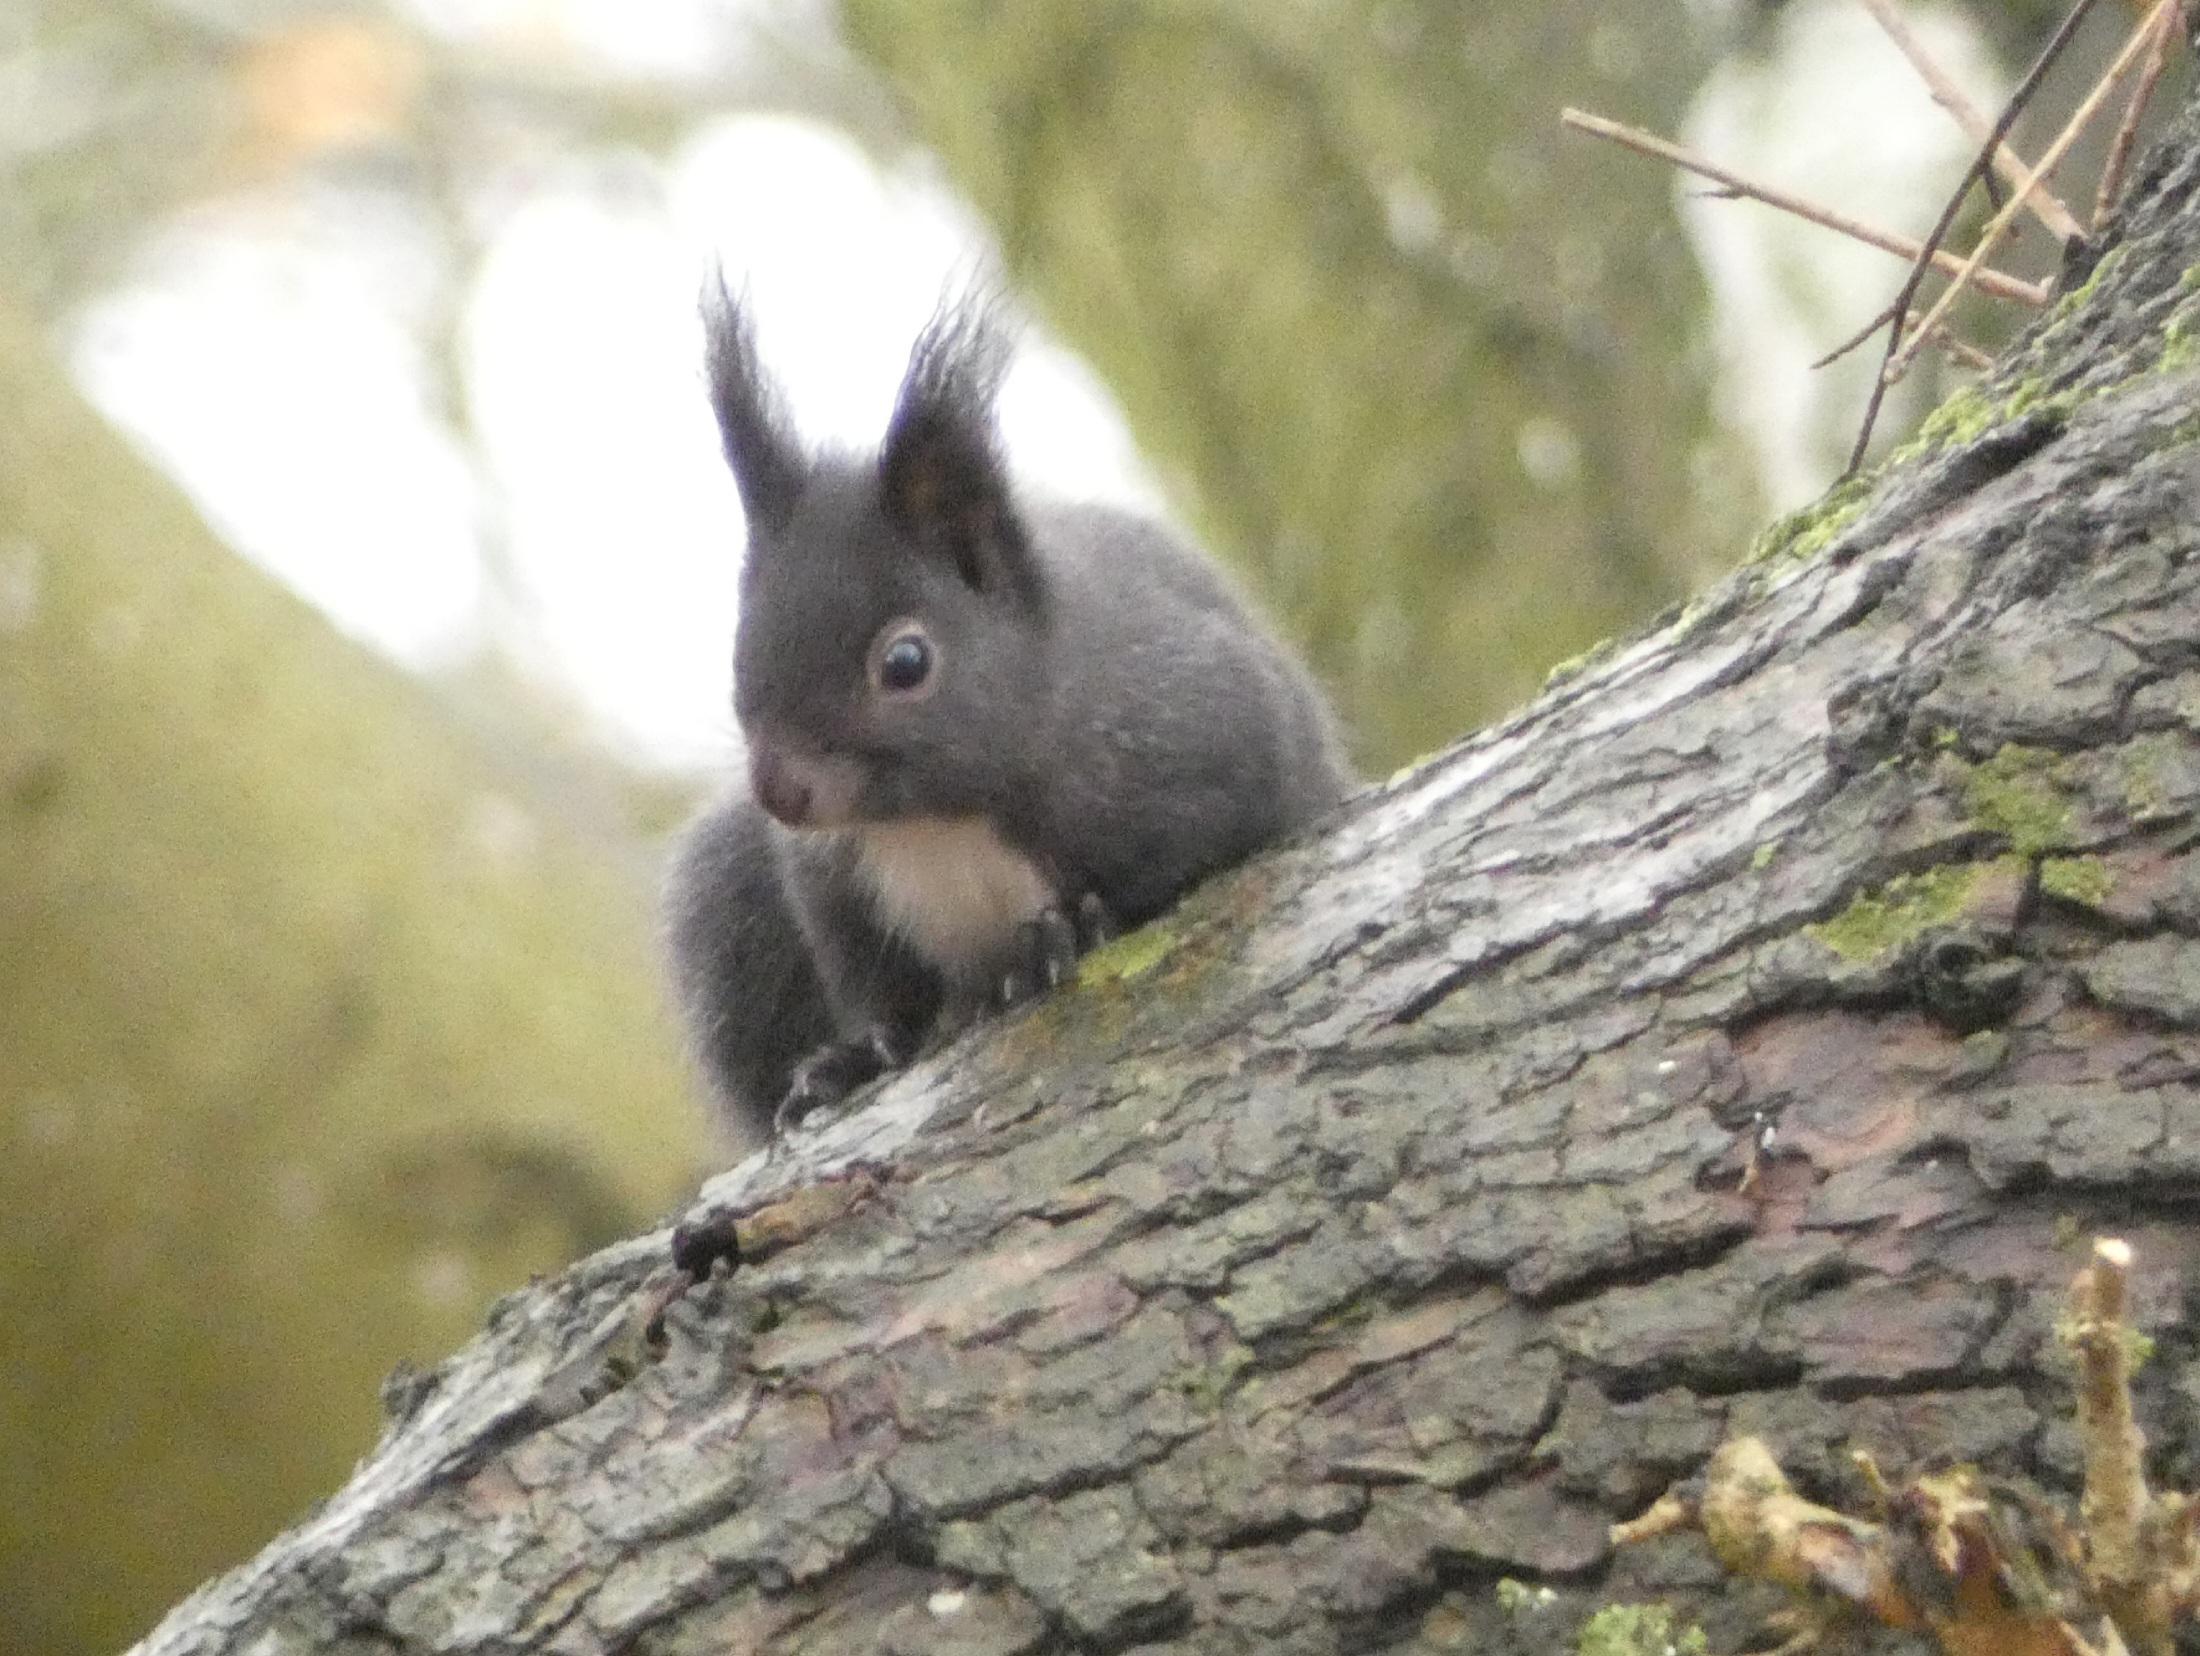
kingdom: Animalia
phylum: Chordata
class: Mammalia
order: Rodentia
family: Sciuridae
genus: Sciurus
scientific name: Sciurus vulgaris
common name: Egern
